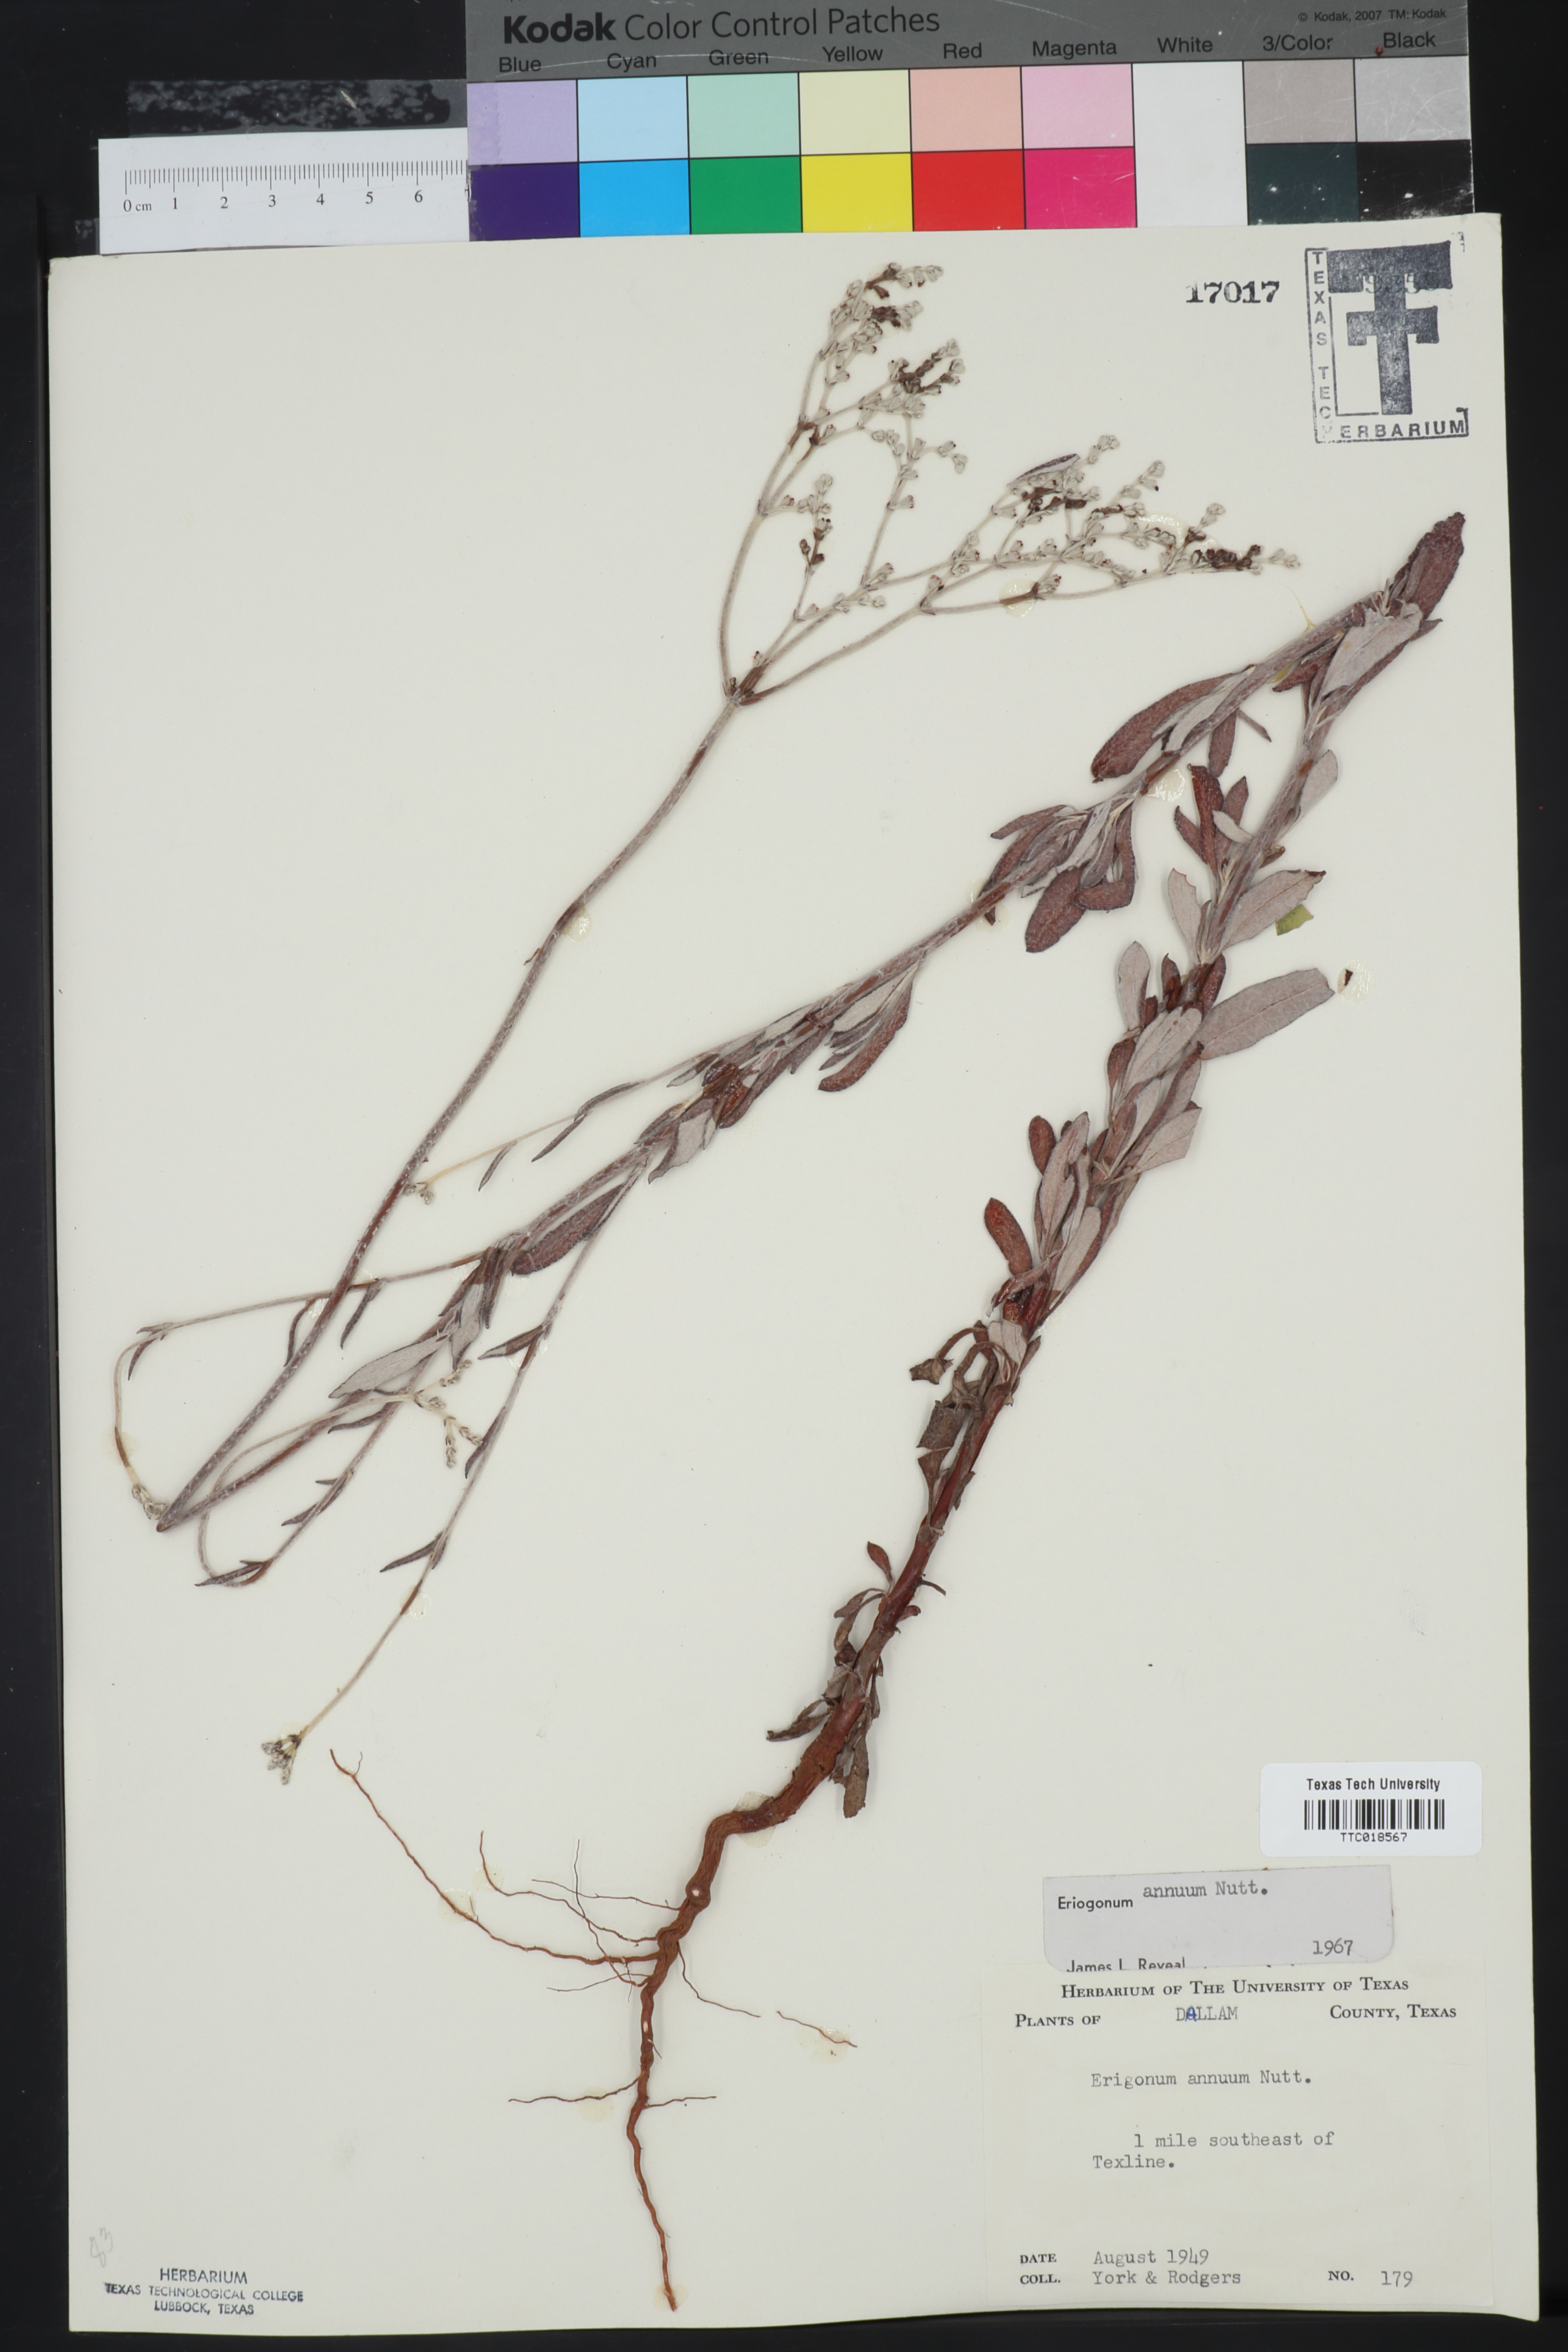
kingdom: Plantae
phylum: Tracheophyta
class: Magnoliopsida
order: Caryophyllales
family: Polygonaceae
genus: Eriogonum
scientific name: Eriogonum annuum
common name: Annual wild buckwheat
